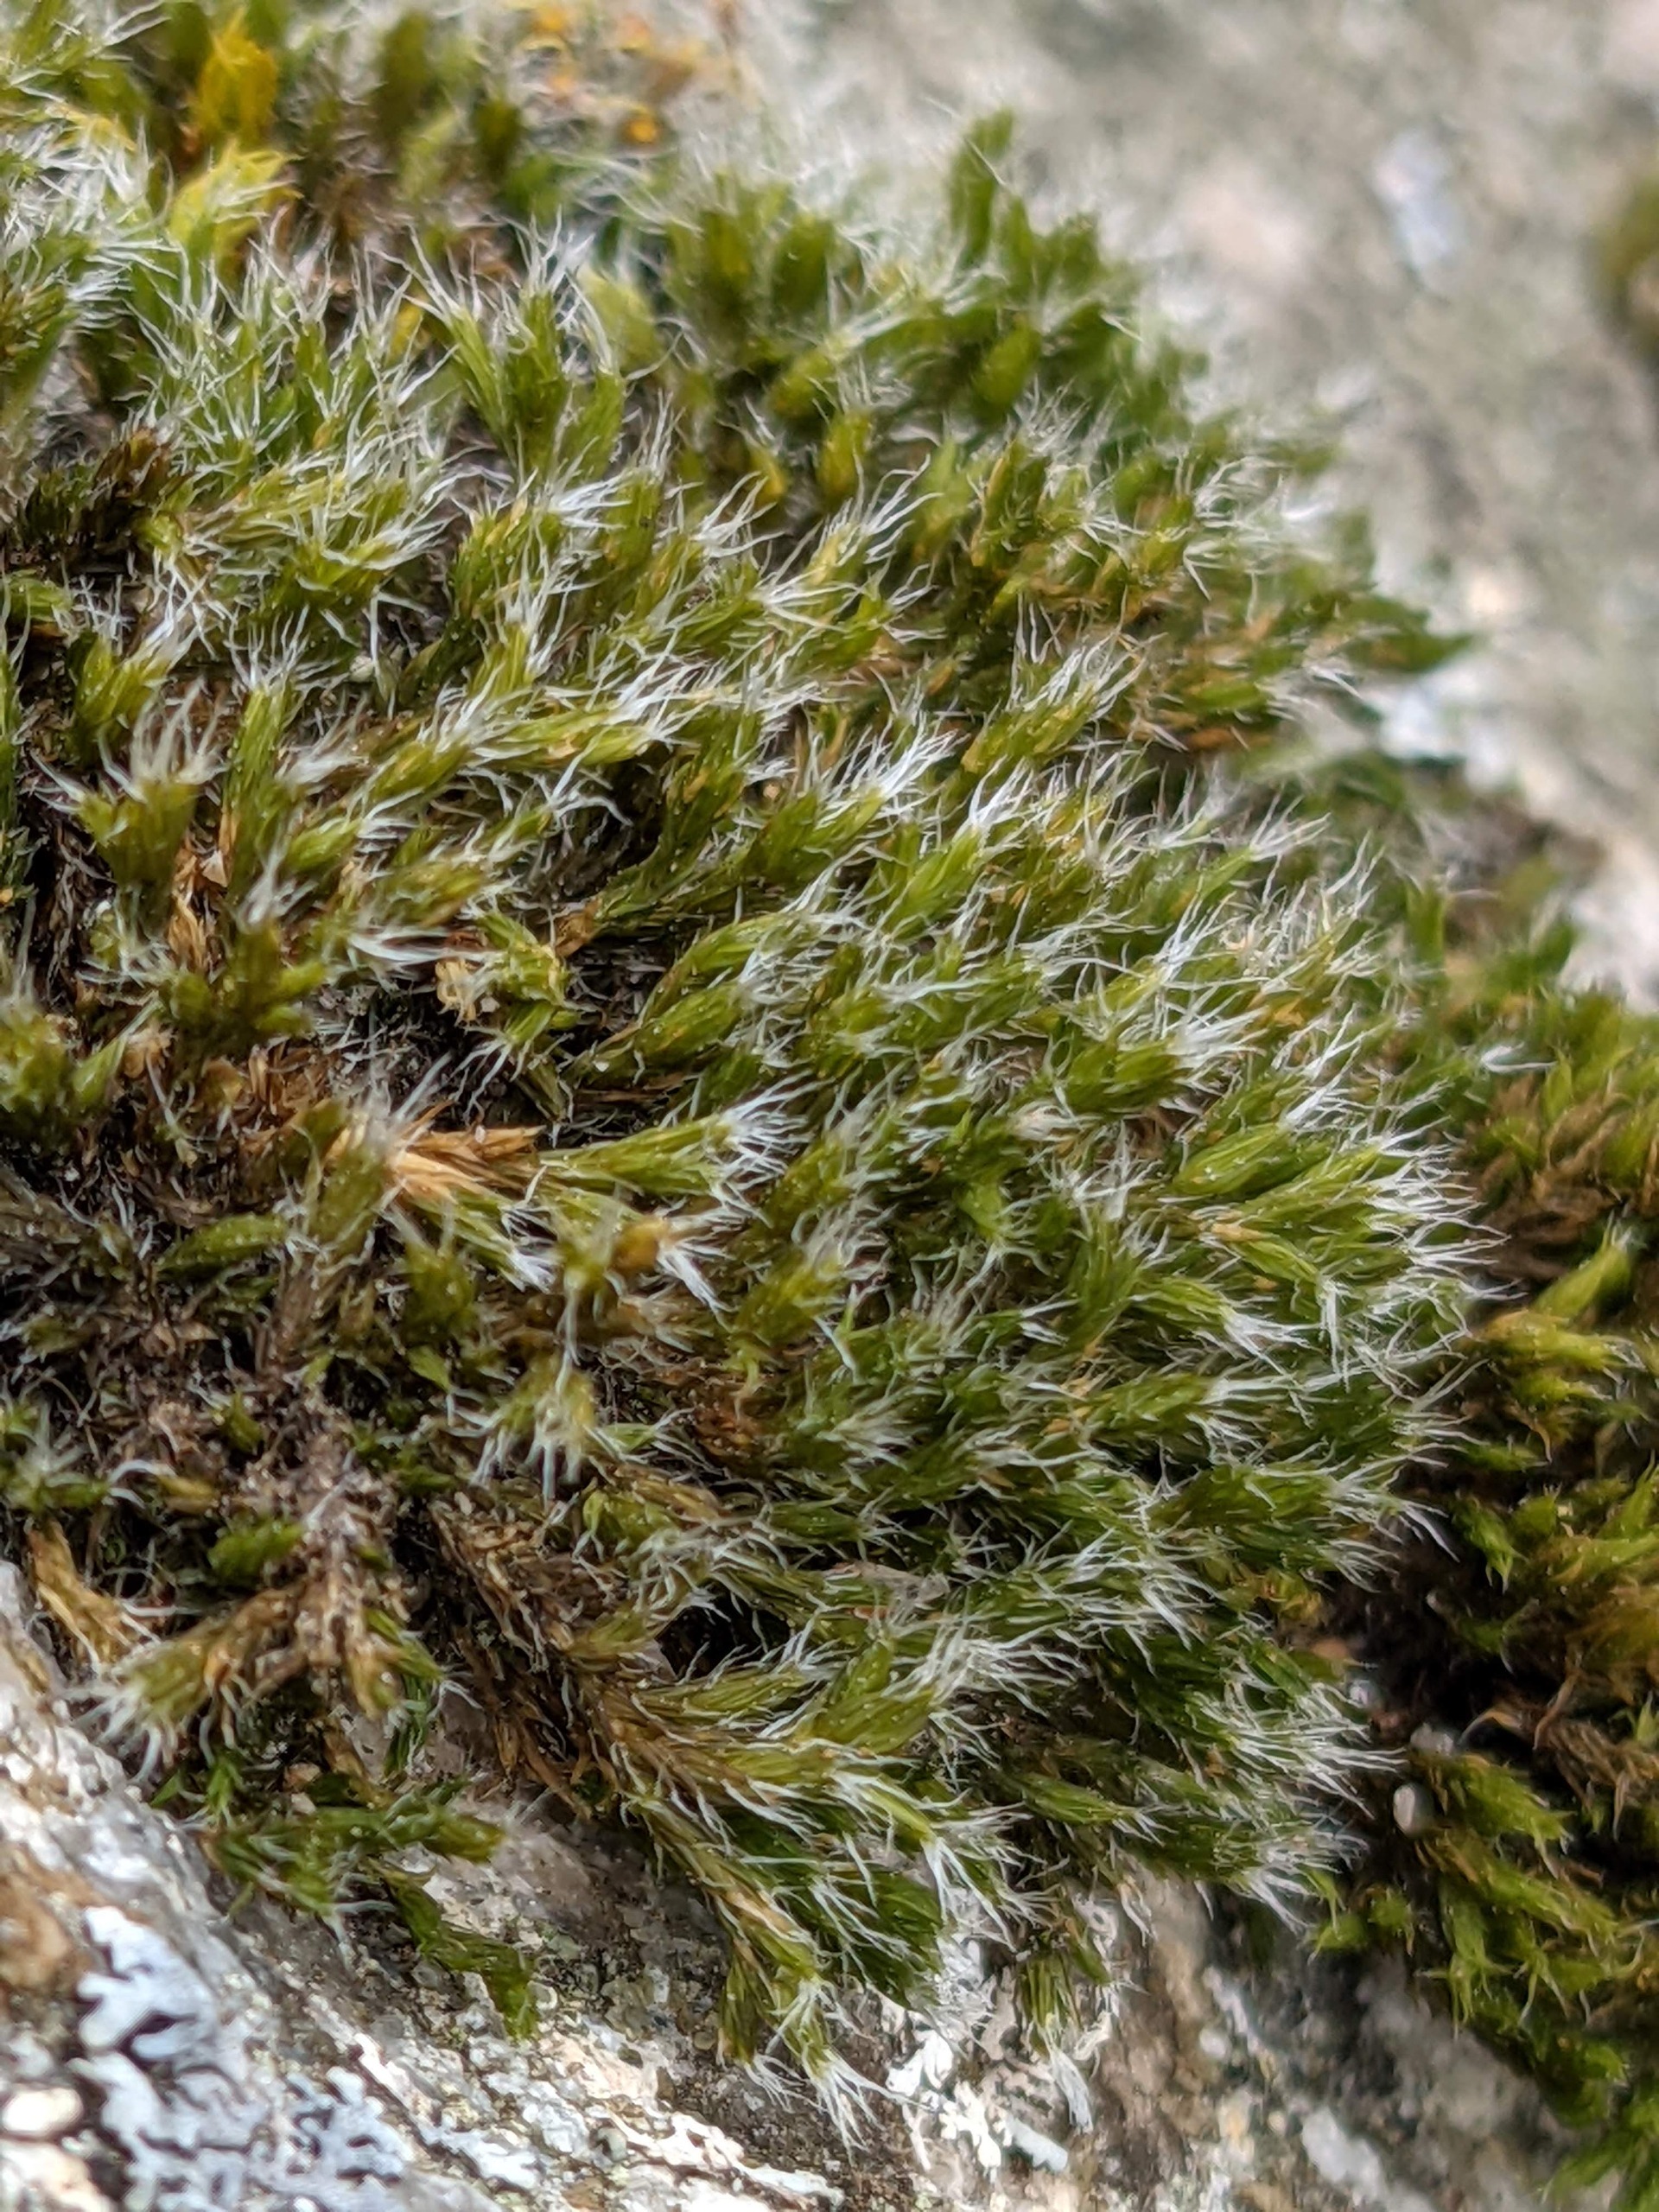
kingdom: Plantae
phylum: Bryophyta
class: Bryopsida
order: Grimmiales
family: Grimmiaceae
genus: Grimmia
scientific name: Grimmia trichophylla
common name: Glathåret gråmos
